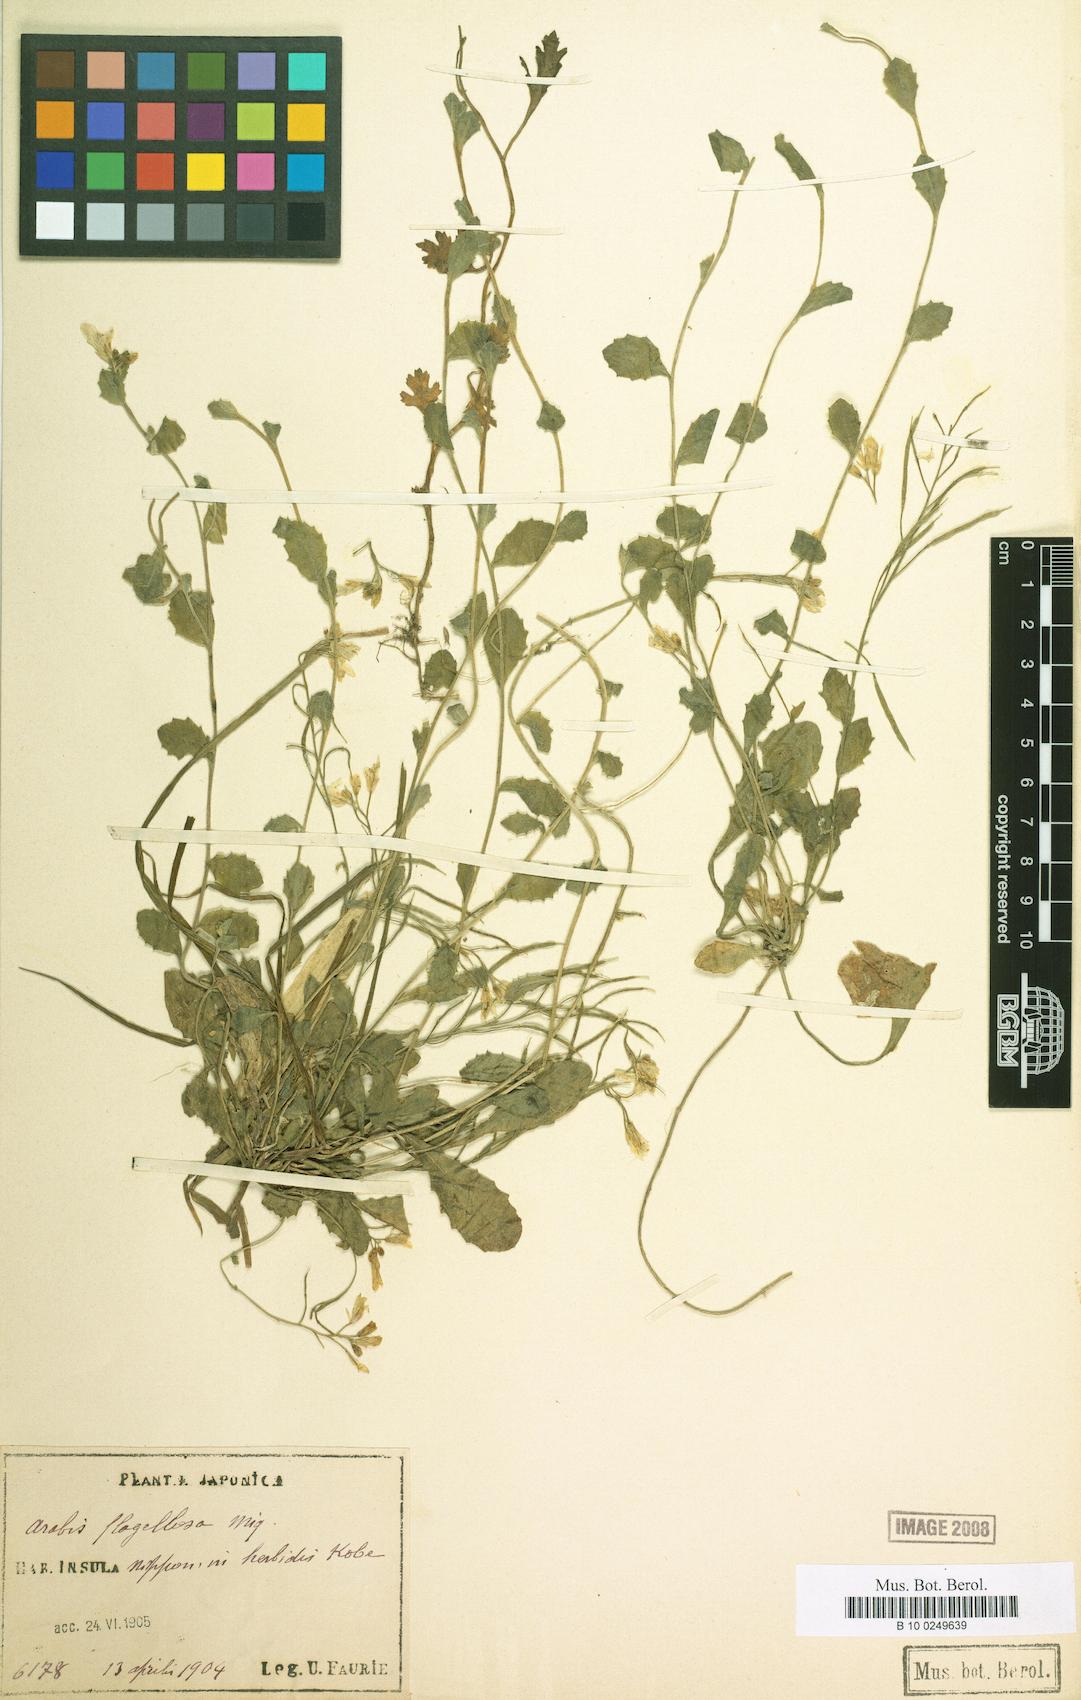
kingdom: Plantae
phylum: Tracheophyta
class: Magnoliopsida
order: Brassicales
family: Brassicaceae
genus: Arabis
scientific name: Arabis flagellosa
